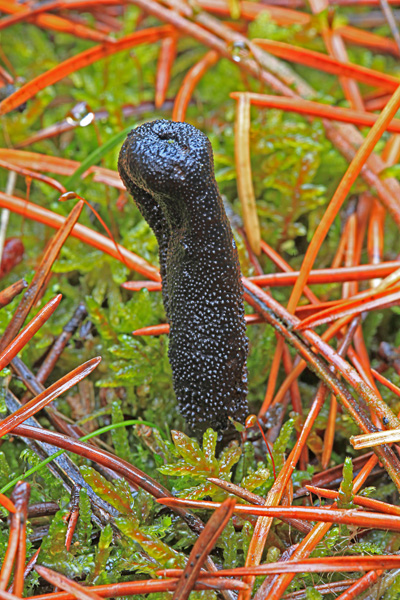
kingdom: Fungi
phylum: Ascomycota
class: Sordariomycetes
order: Hypocreales
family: Ophiocordycipitaceae
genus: Tolypocladium
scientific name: Tolypocladium ophioglossoides
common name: slank snyltekølle
